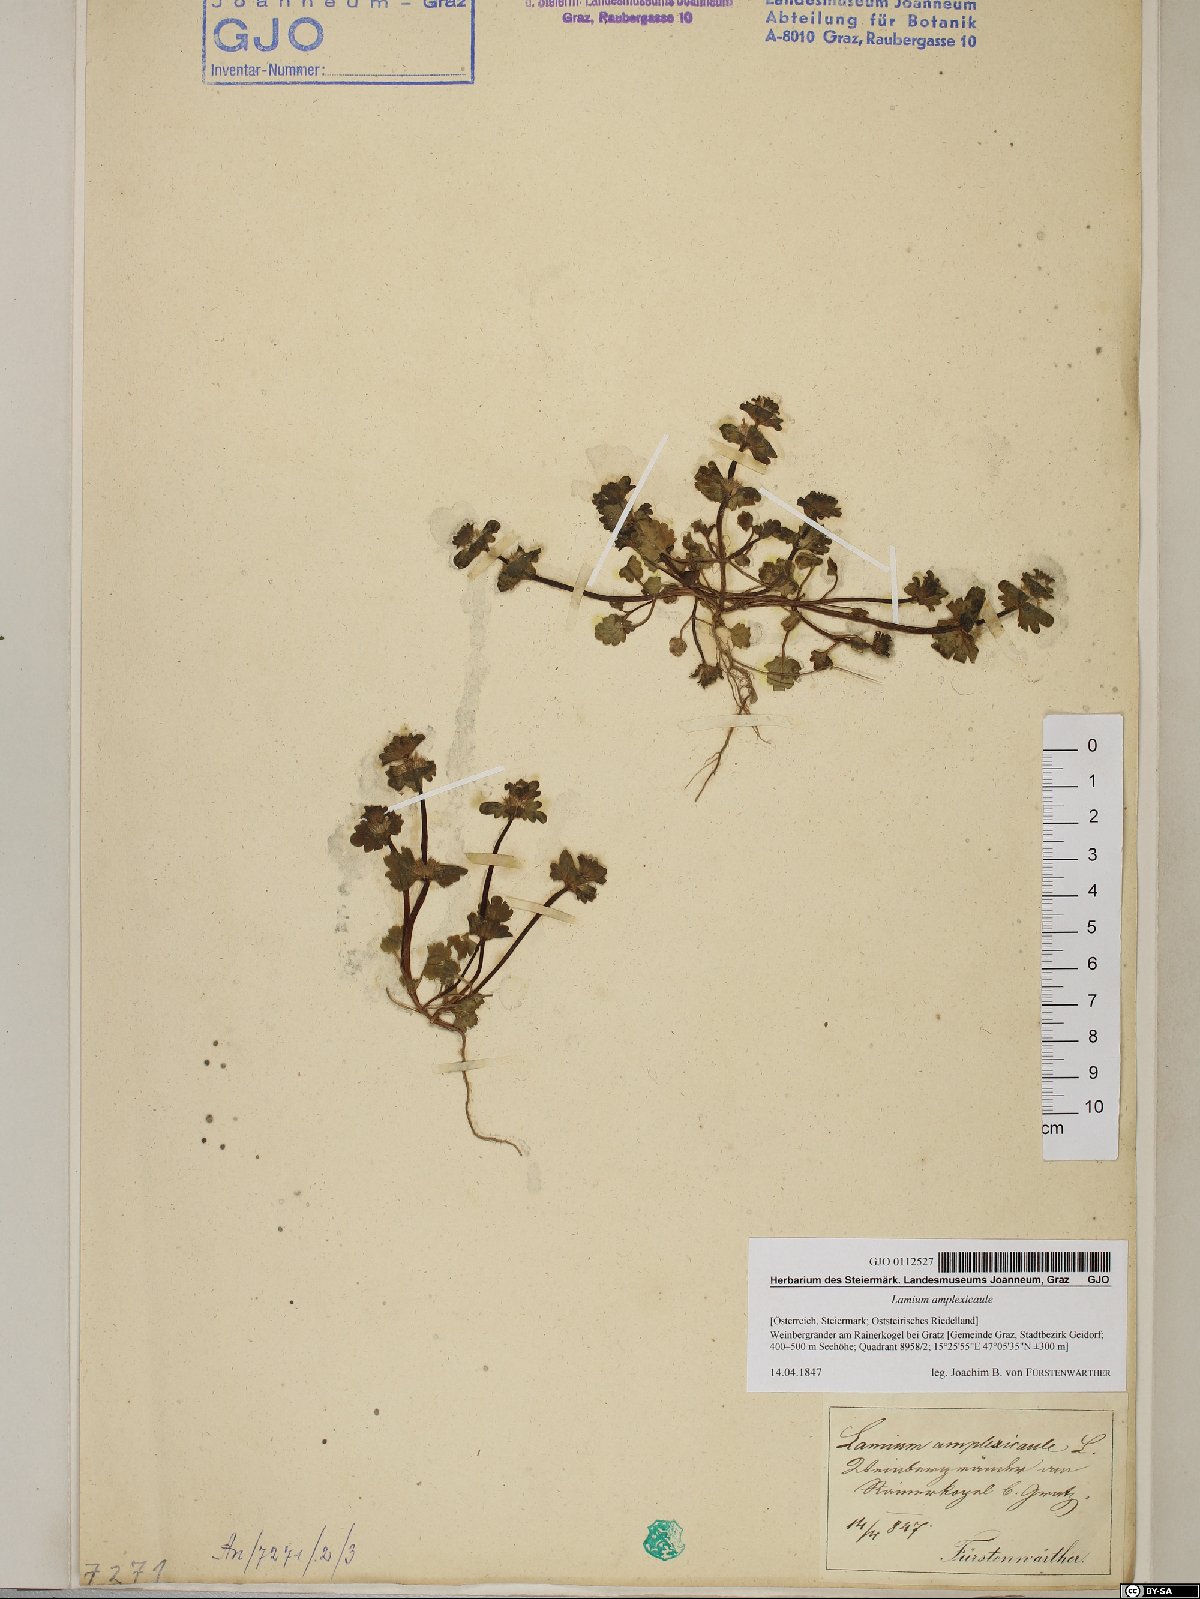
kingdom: Plantae
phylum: Tracheophyta
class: Magnoliopsida
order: Lamiales
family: Lamiaceae
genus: Lamium
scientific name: Lamium amplexicaule
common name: Henbit dead-nettle
